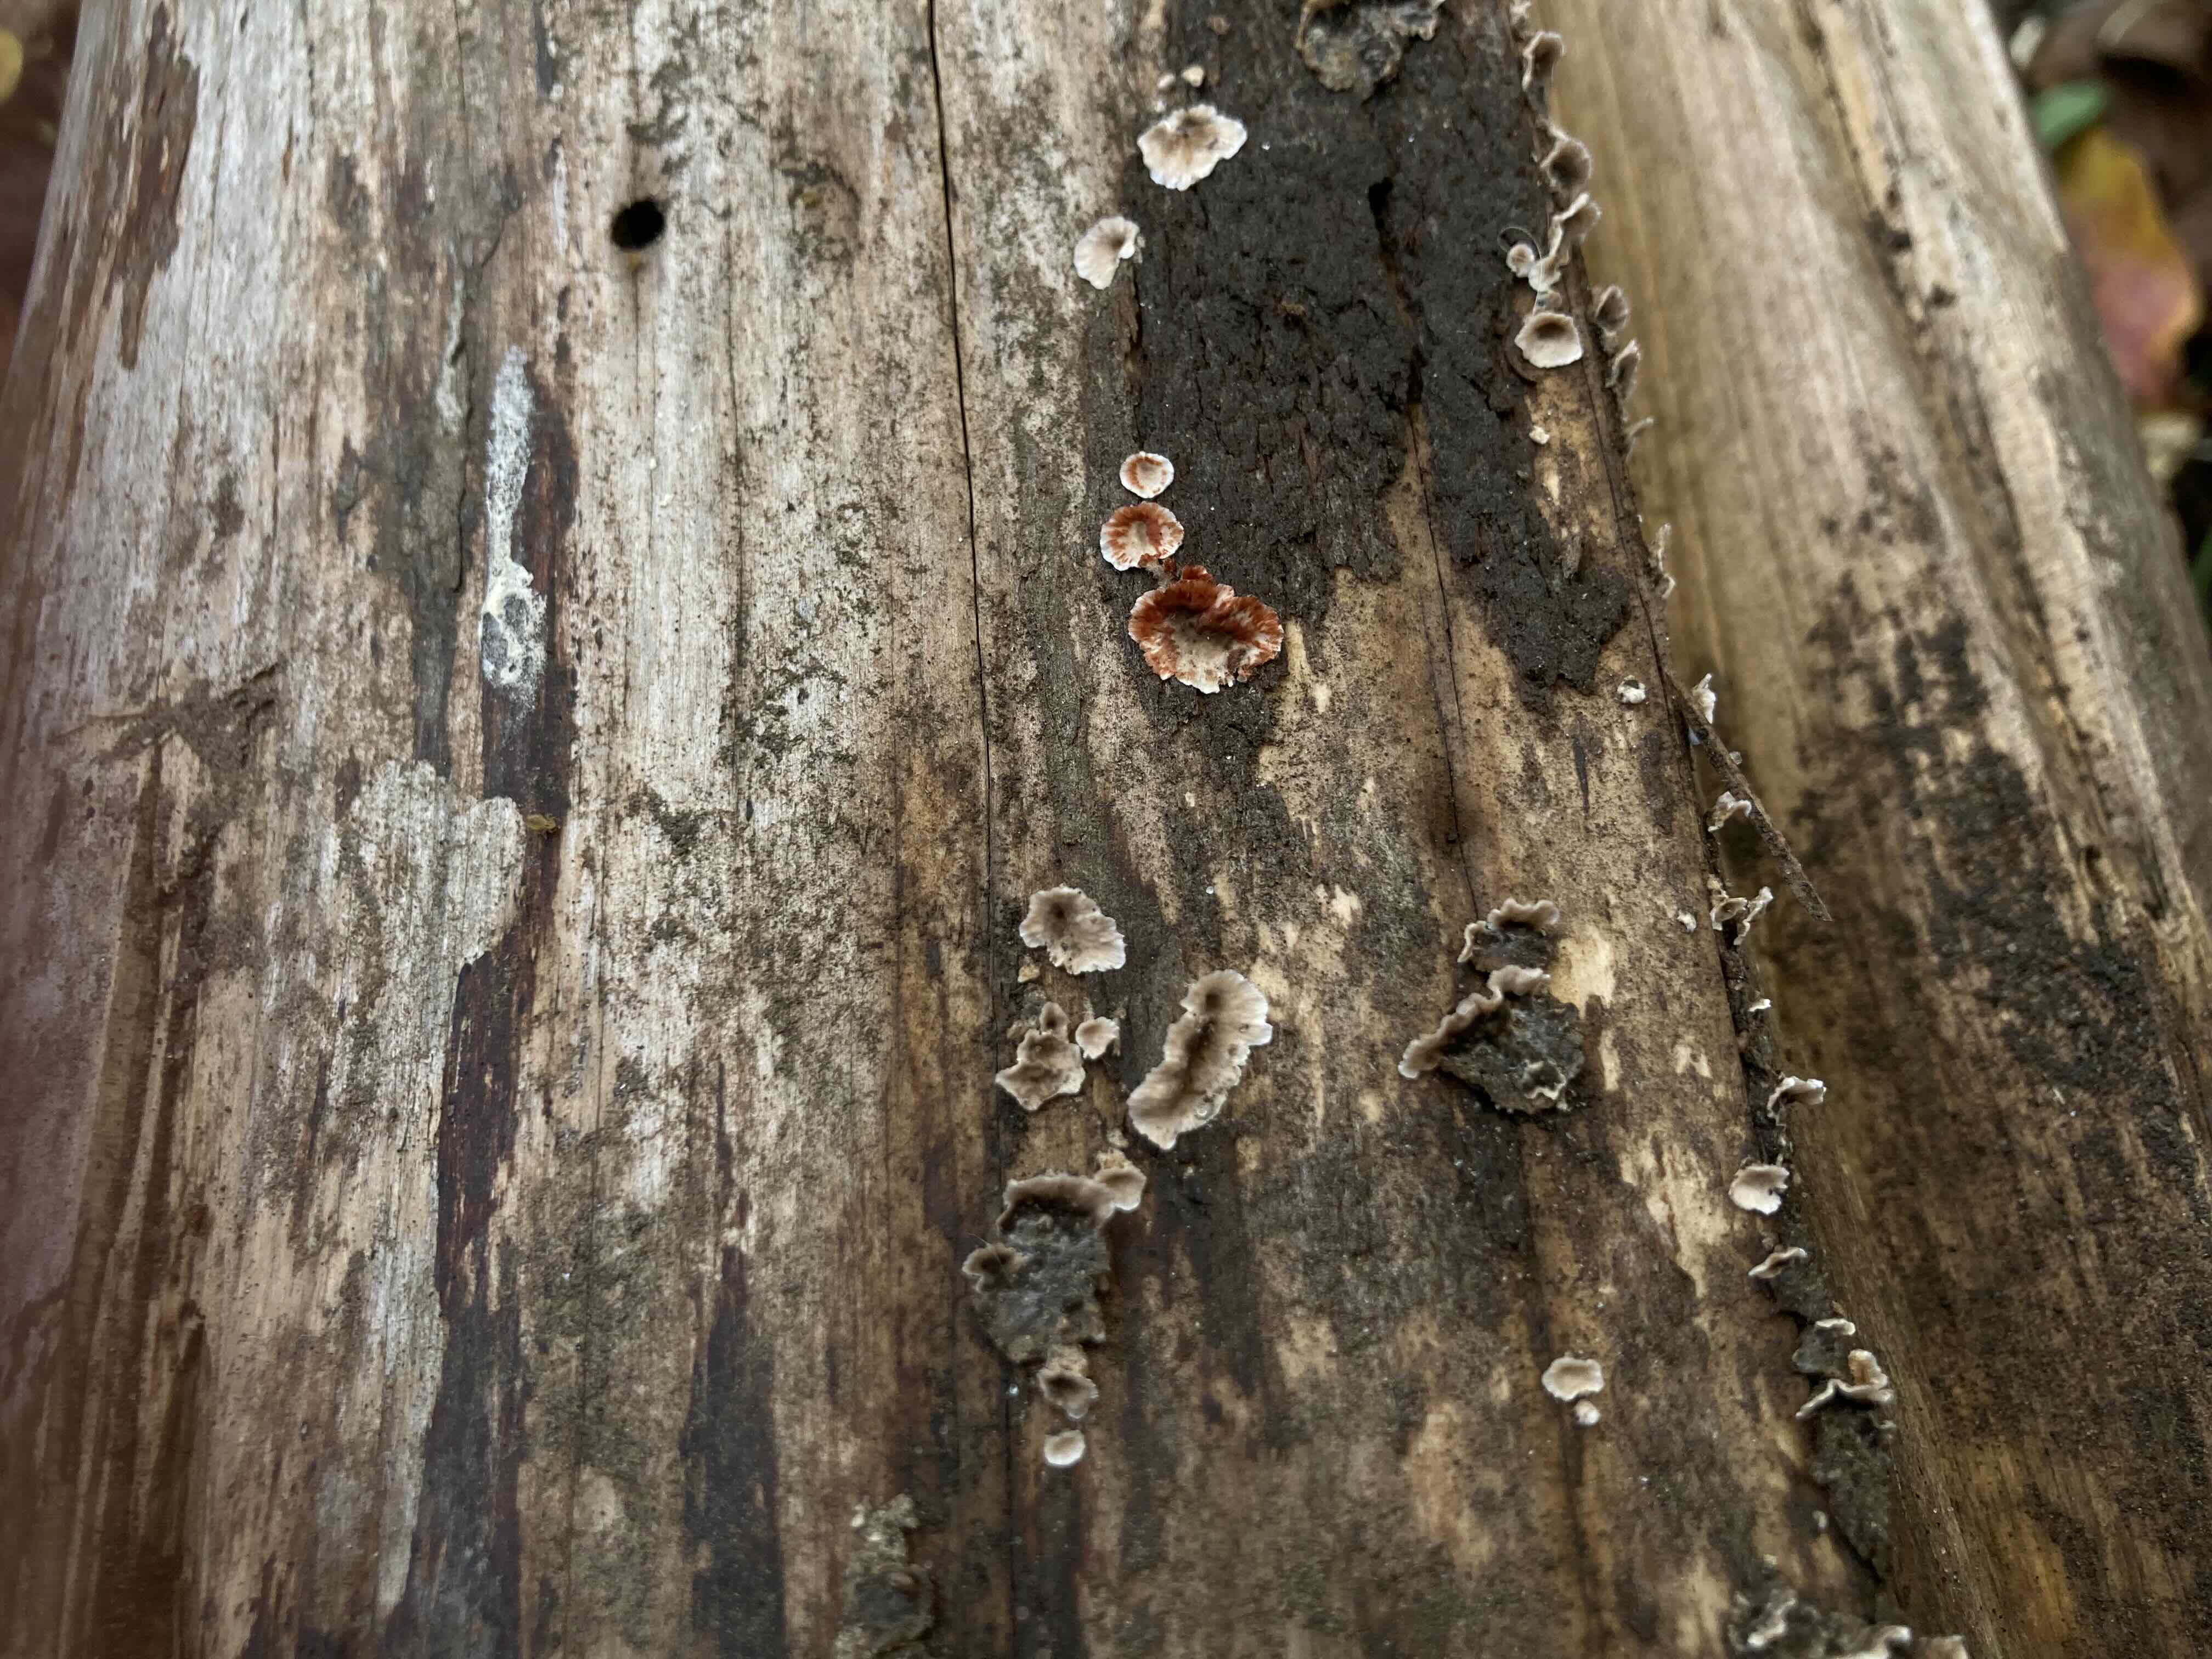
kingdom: Fungi
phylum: Basidiomycota
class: Agaricomycetes
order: Russulales
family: Stereaceae
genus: Stereum
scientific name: Stereum sanguinolentum
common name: blødende lædersvamp
